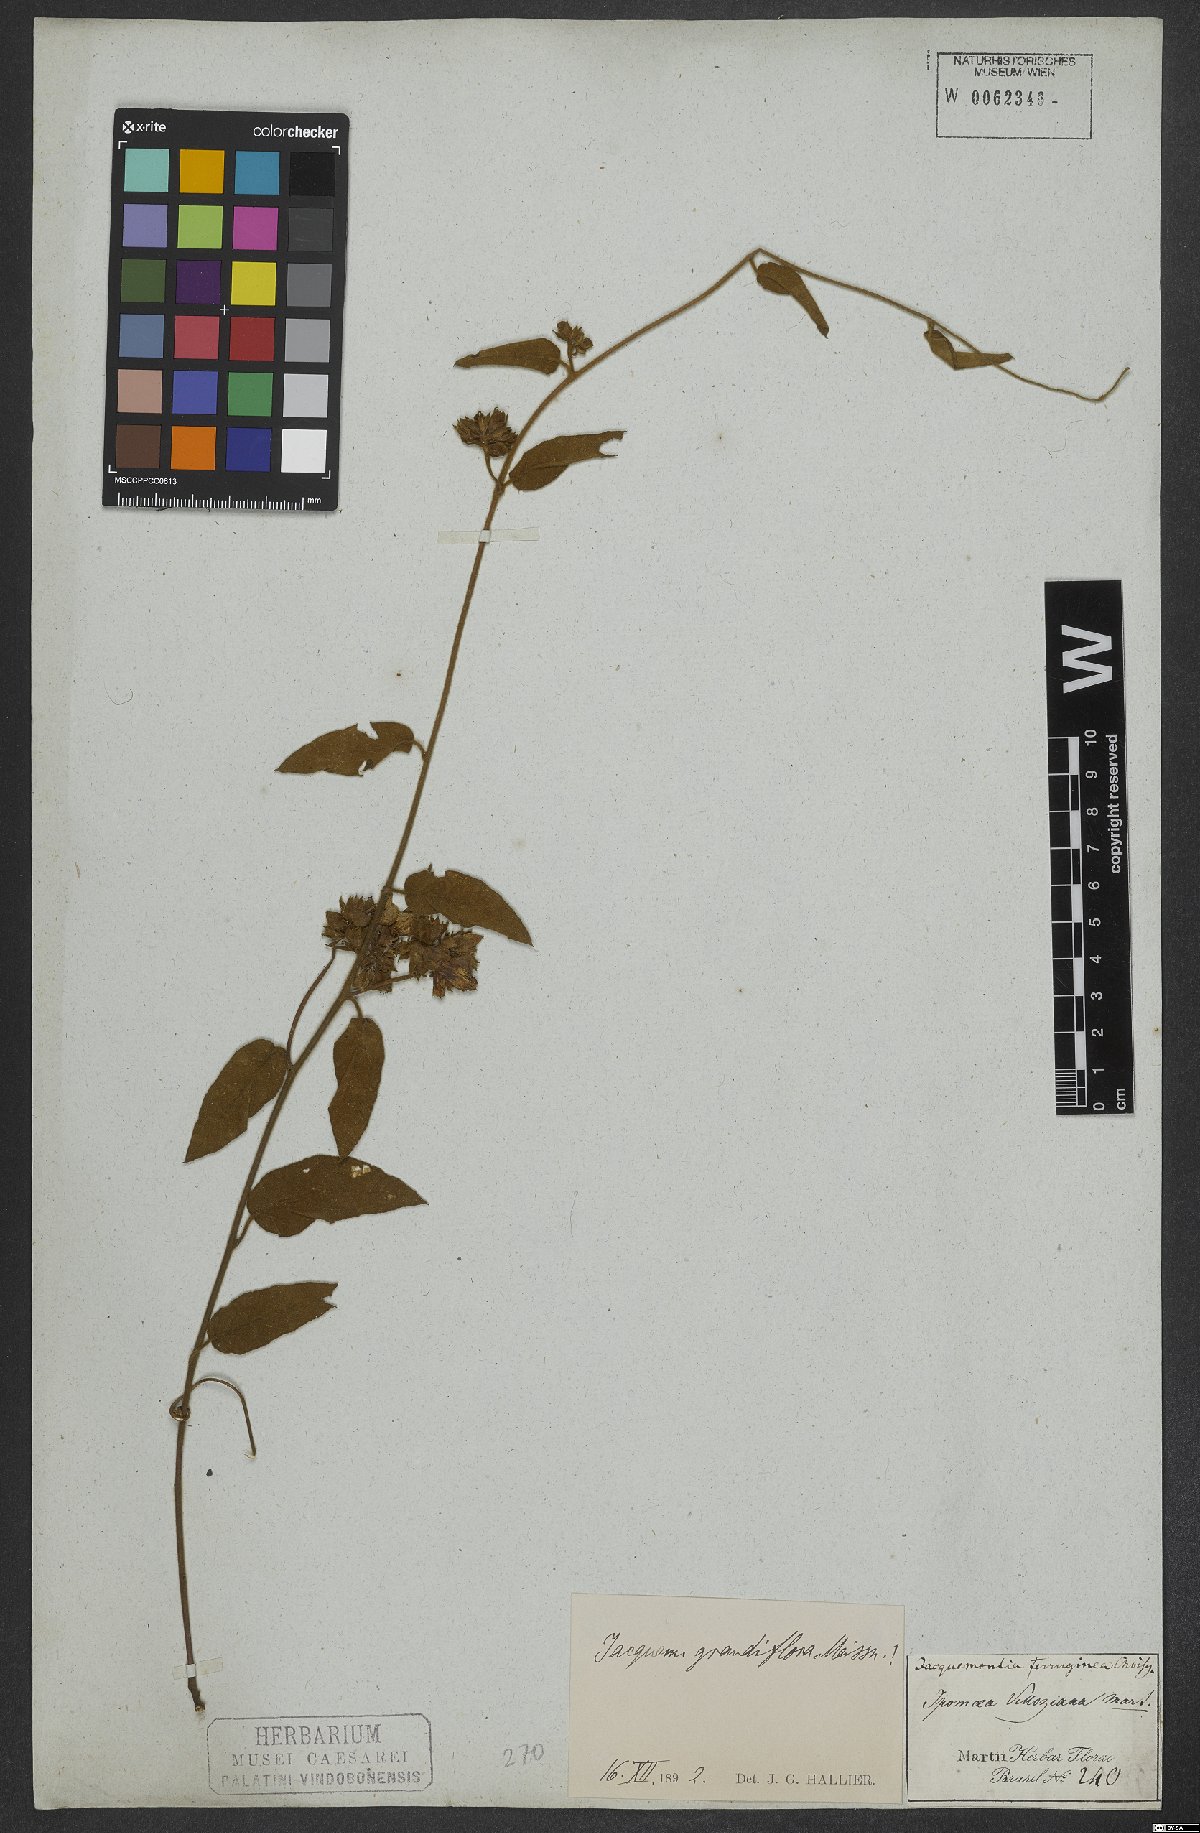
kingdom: Plantae
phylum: Tracheophyta
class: Magnoliopsida
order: Solanales
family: Convolvulaceae
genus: Jacquemontia
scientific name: Jacquemontia velloziana
